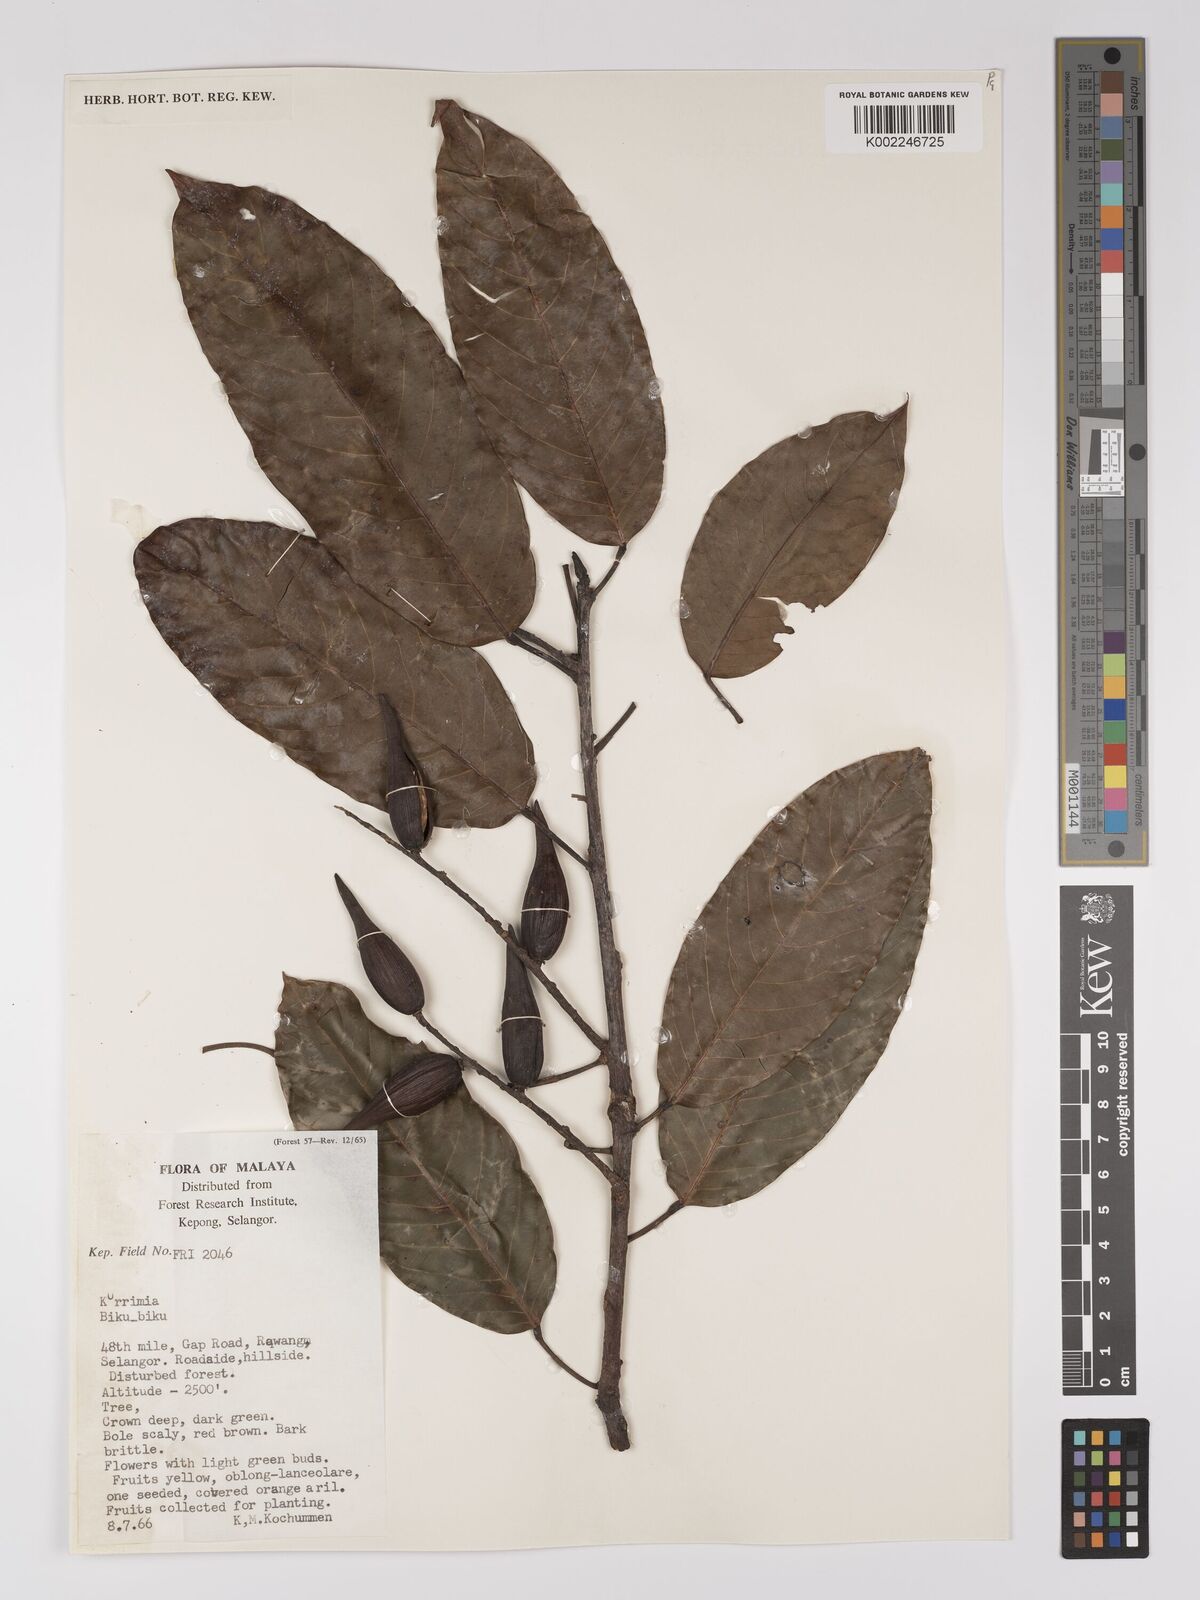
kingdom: Plantae
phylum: Tracheophyta
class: Magnoliopsida
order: Malpighiales
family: Centroplacaceae
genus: Bhesa
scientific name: Bhesa robusta
